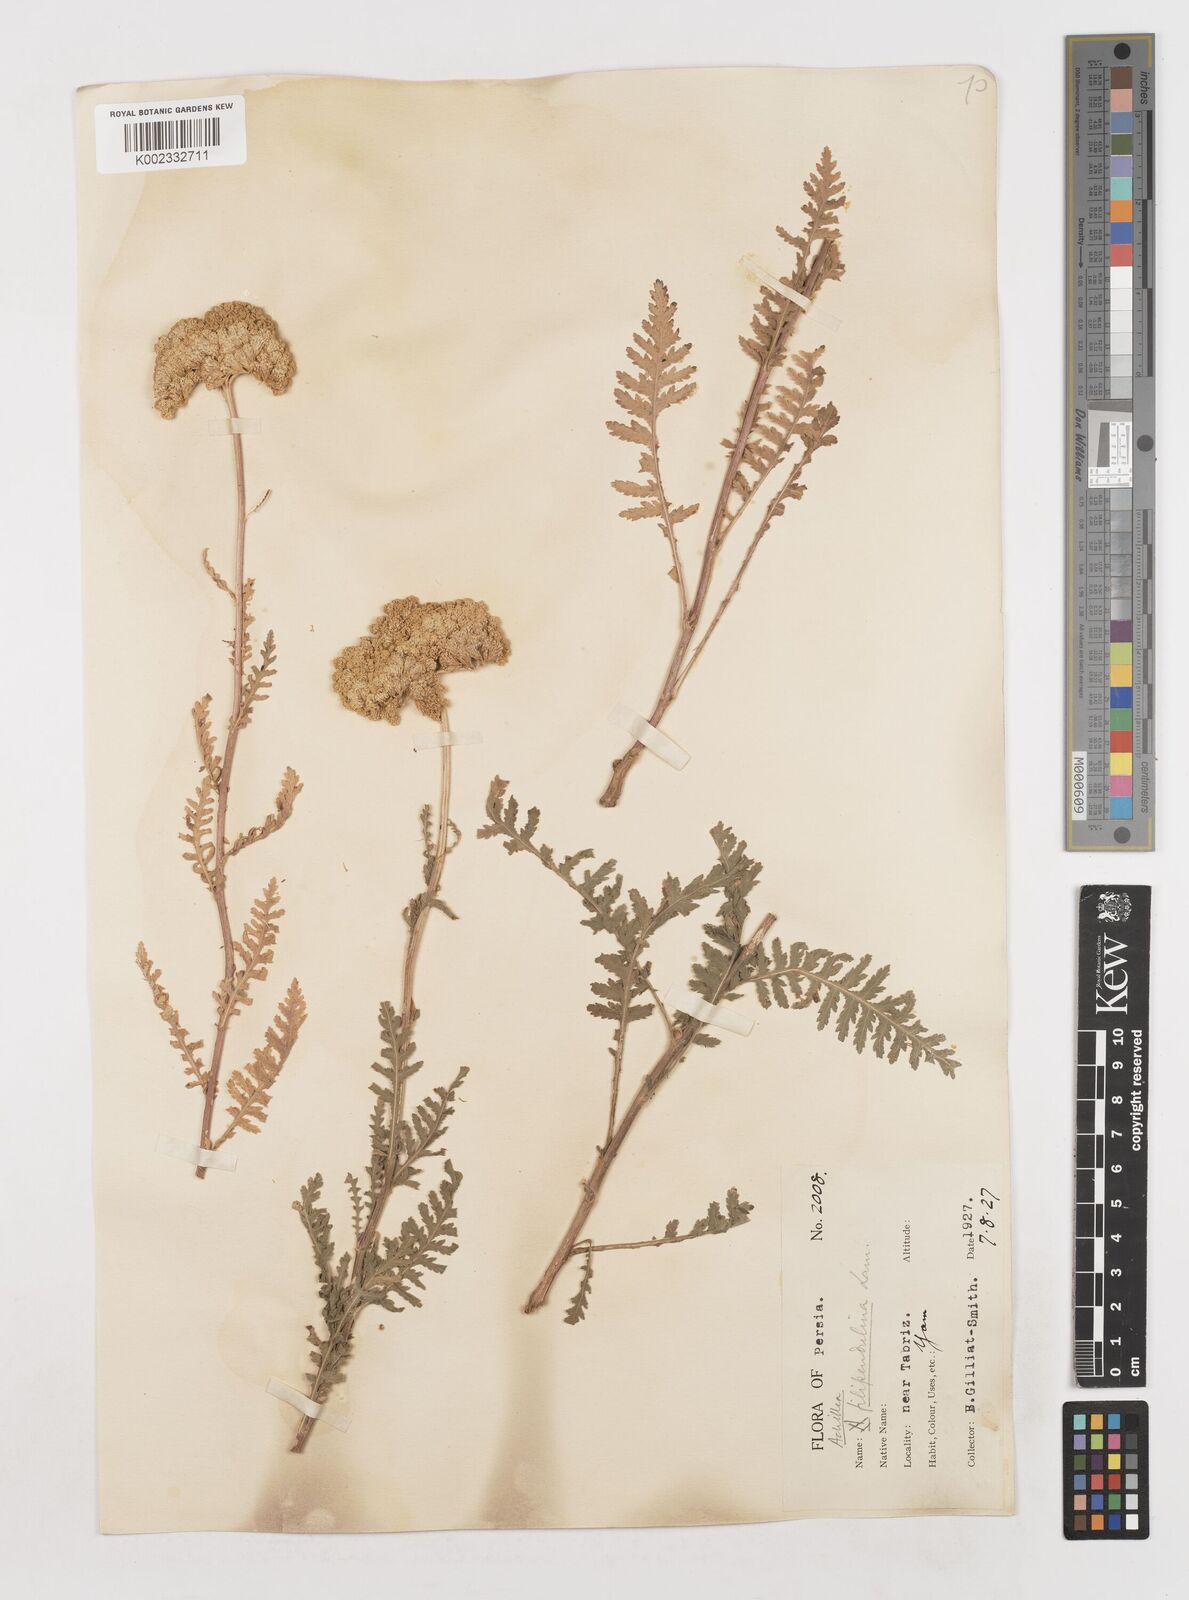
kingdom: Plantae
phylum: Tracheophyta
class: Magnoliopsida
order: Asterales
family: Asteraceae
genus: Achillea
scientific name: Achillea filipendulina
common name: Fernleaf yarrow
